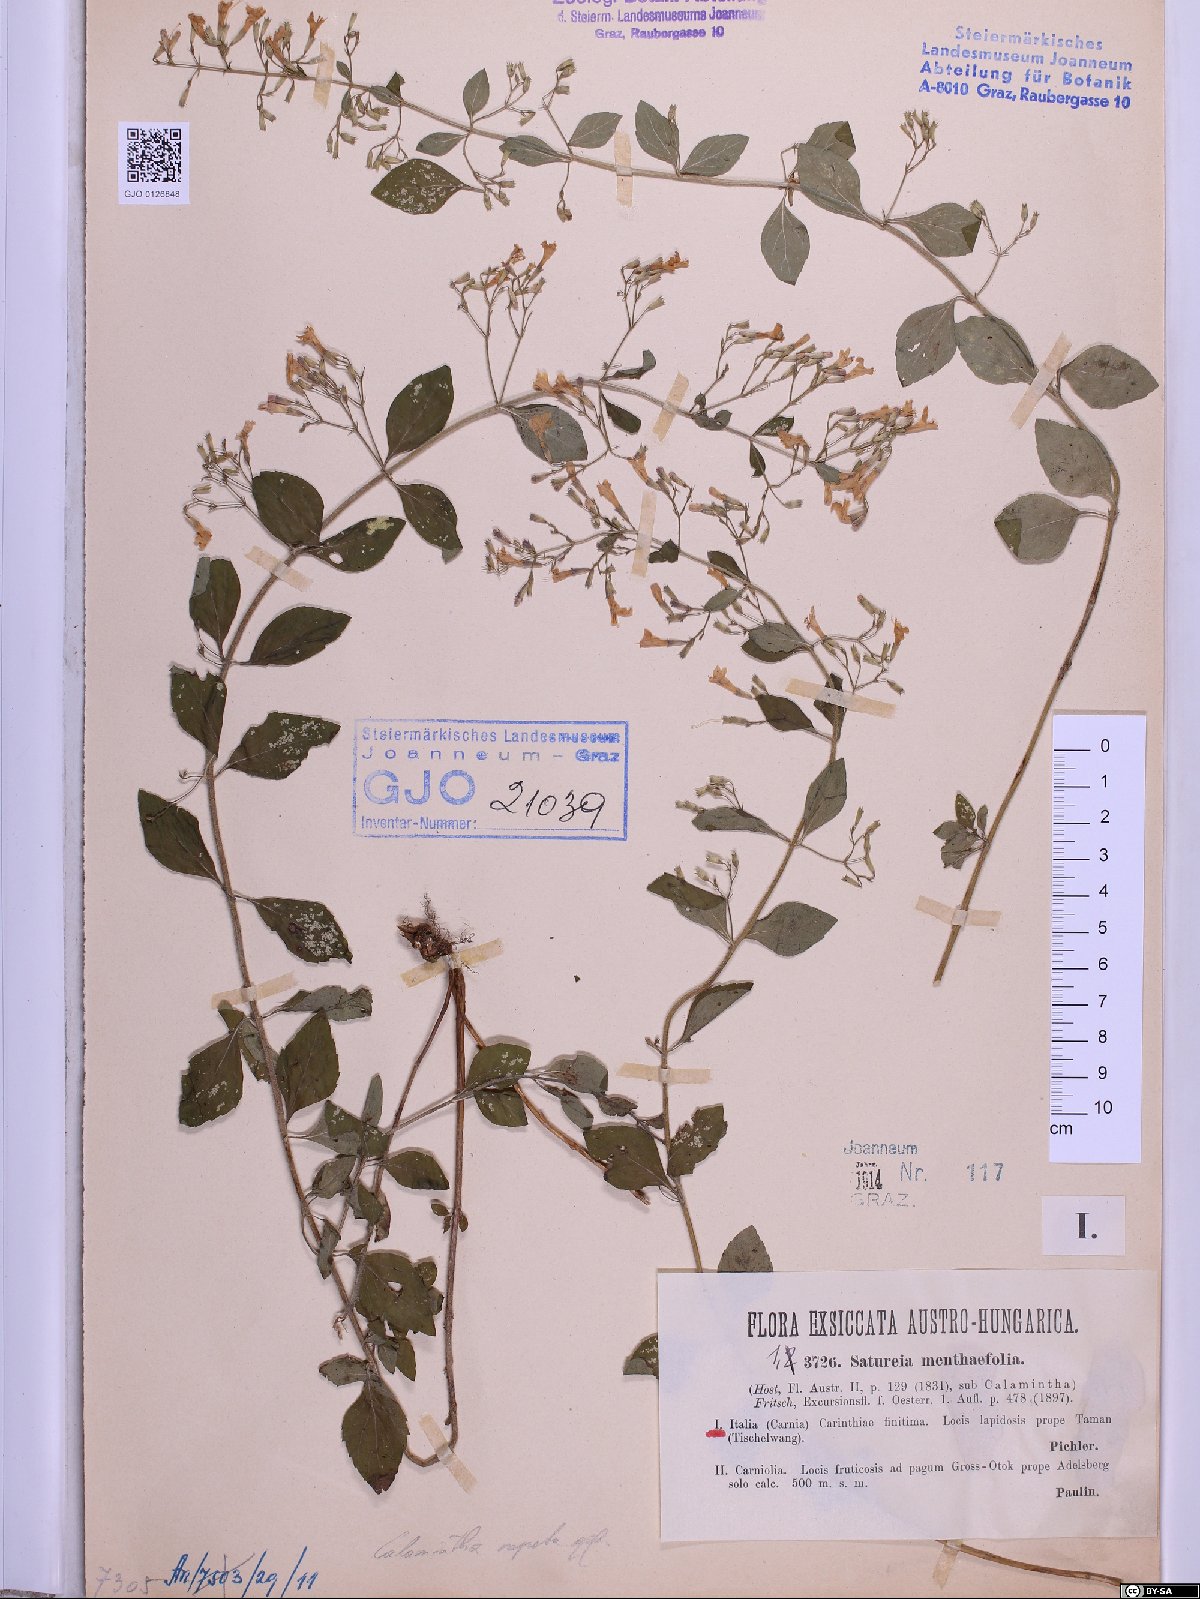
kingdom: Plantae
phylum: Tracheophyta
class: Magnoliopsida
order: Lamiales
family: Lamiaceae
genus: Clinopodium
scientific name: Clinopodium menthifolium
